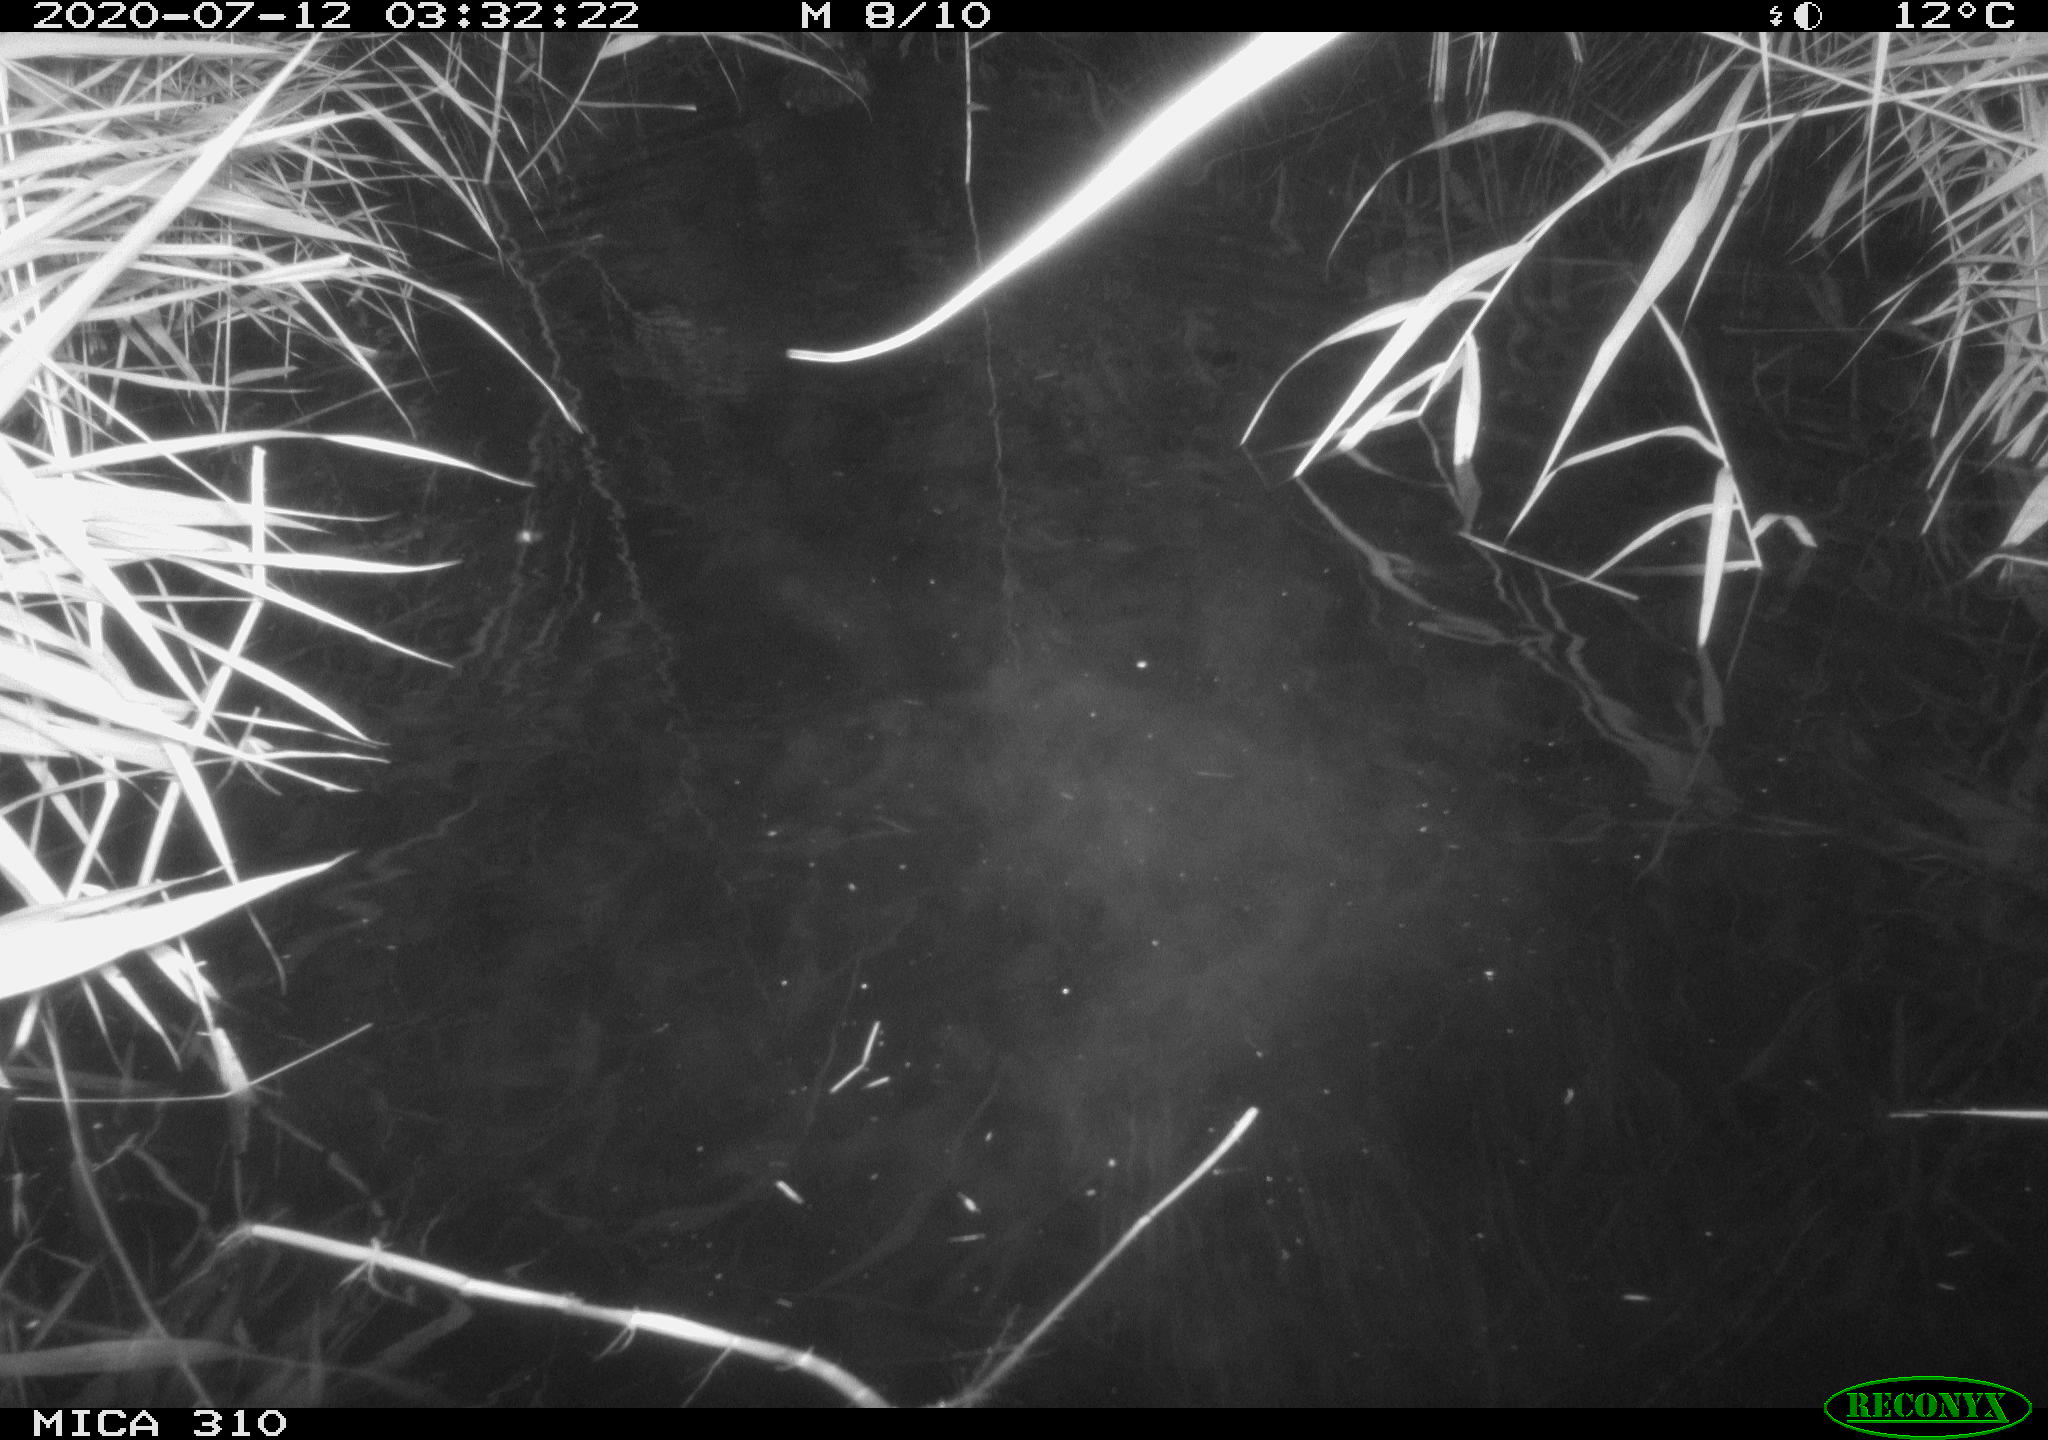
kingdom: Animalia
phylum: Chordata
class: Aves
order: Anseriformes
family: Anatidae
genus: Anas
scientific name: Anas platyrhynchos
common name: Mallard
